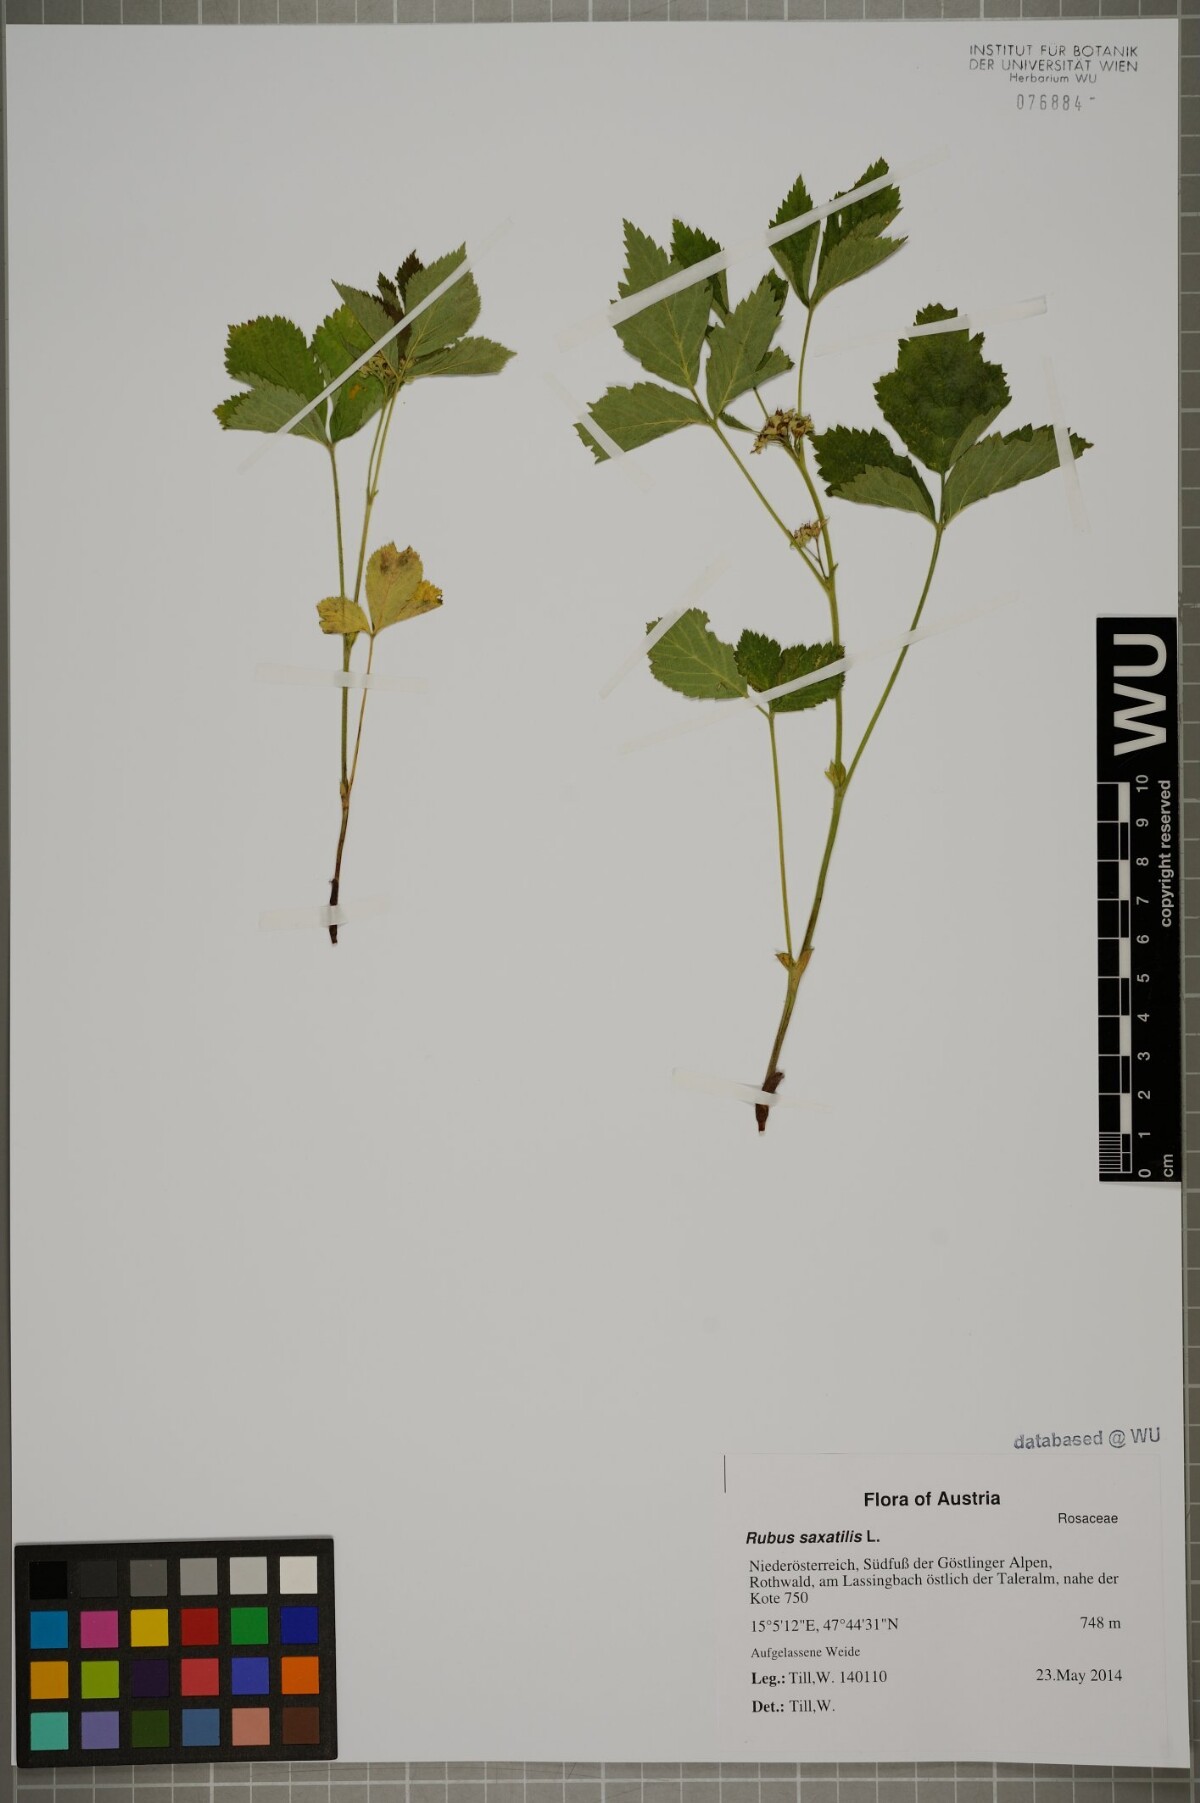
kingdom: Plantae
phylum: Tracheophyta
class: Magnoliopsida
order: Rosales
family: Rosaceae
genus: Rubus
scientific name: Rubus saxatilis
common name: Stone bramble
